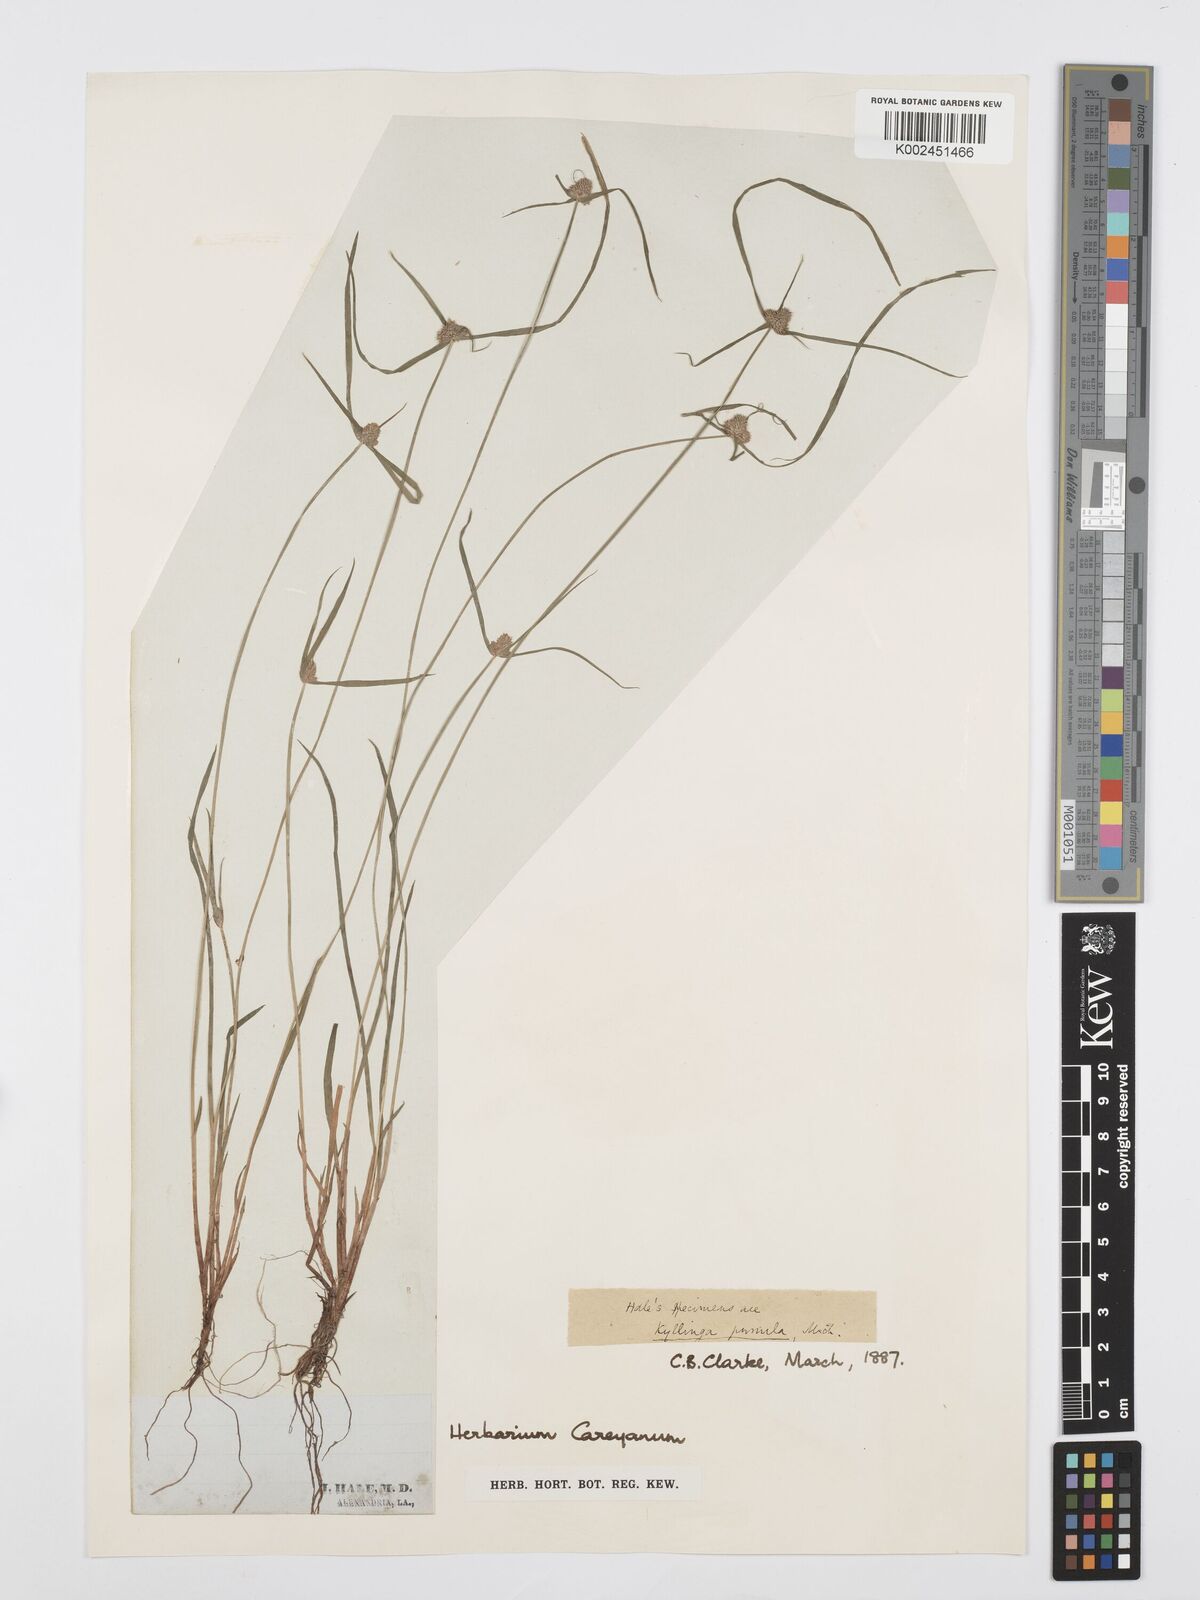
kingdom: Plantae
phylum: Tracheophyta
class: Liliopsida
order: Poales
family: Cyperaceae
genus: Cyperus
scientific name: Cyperus
